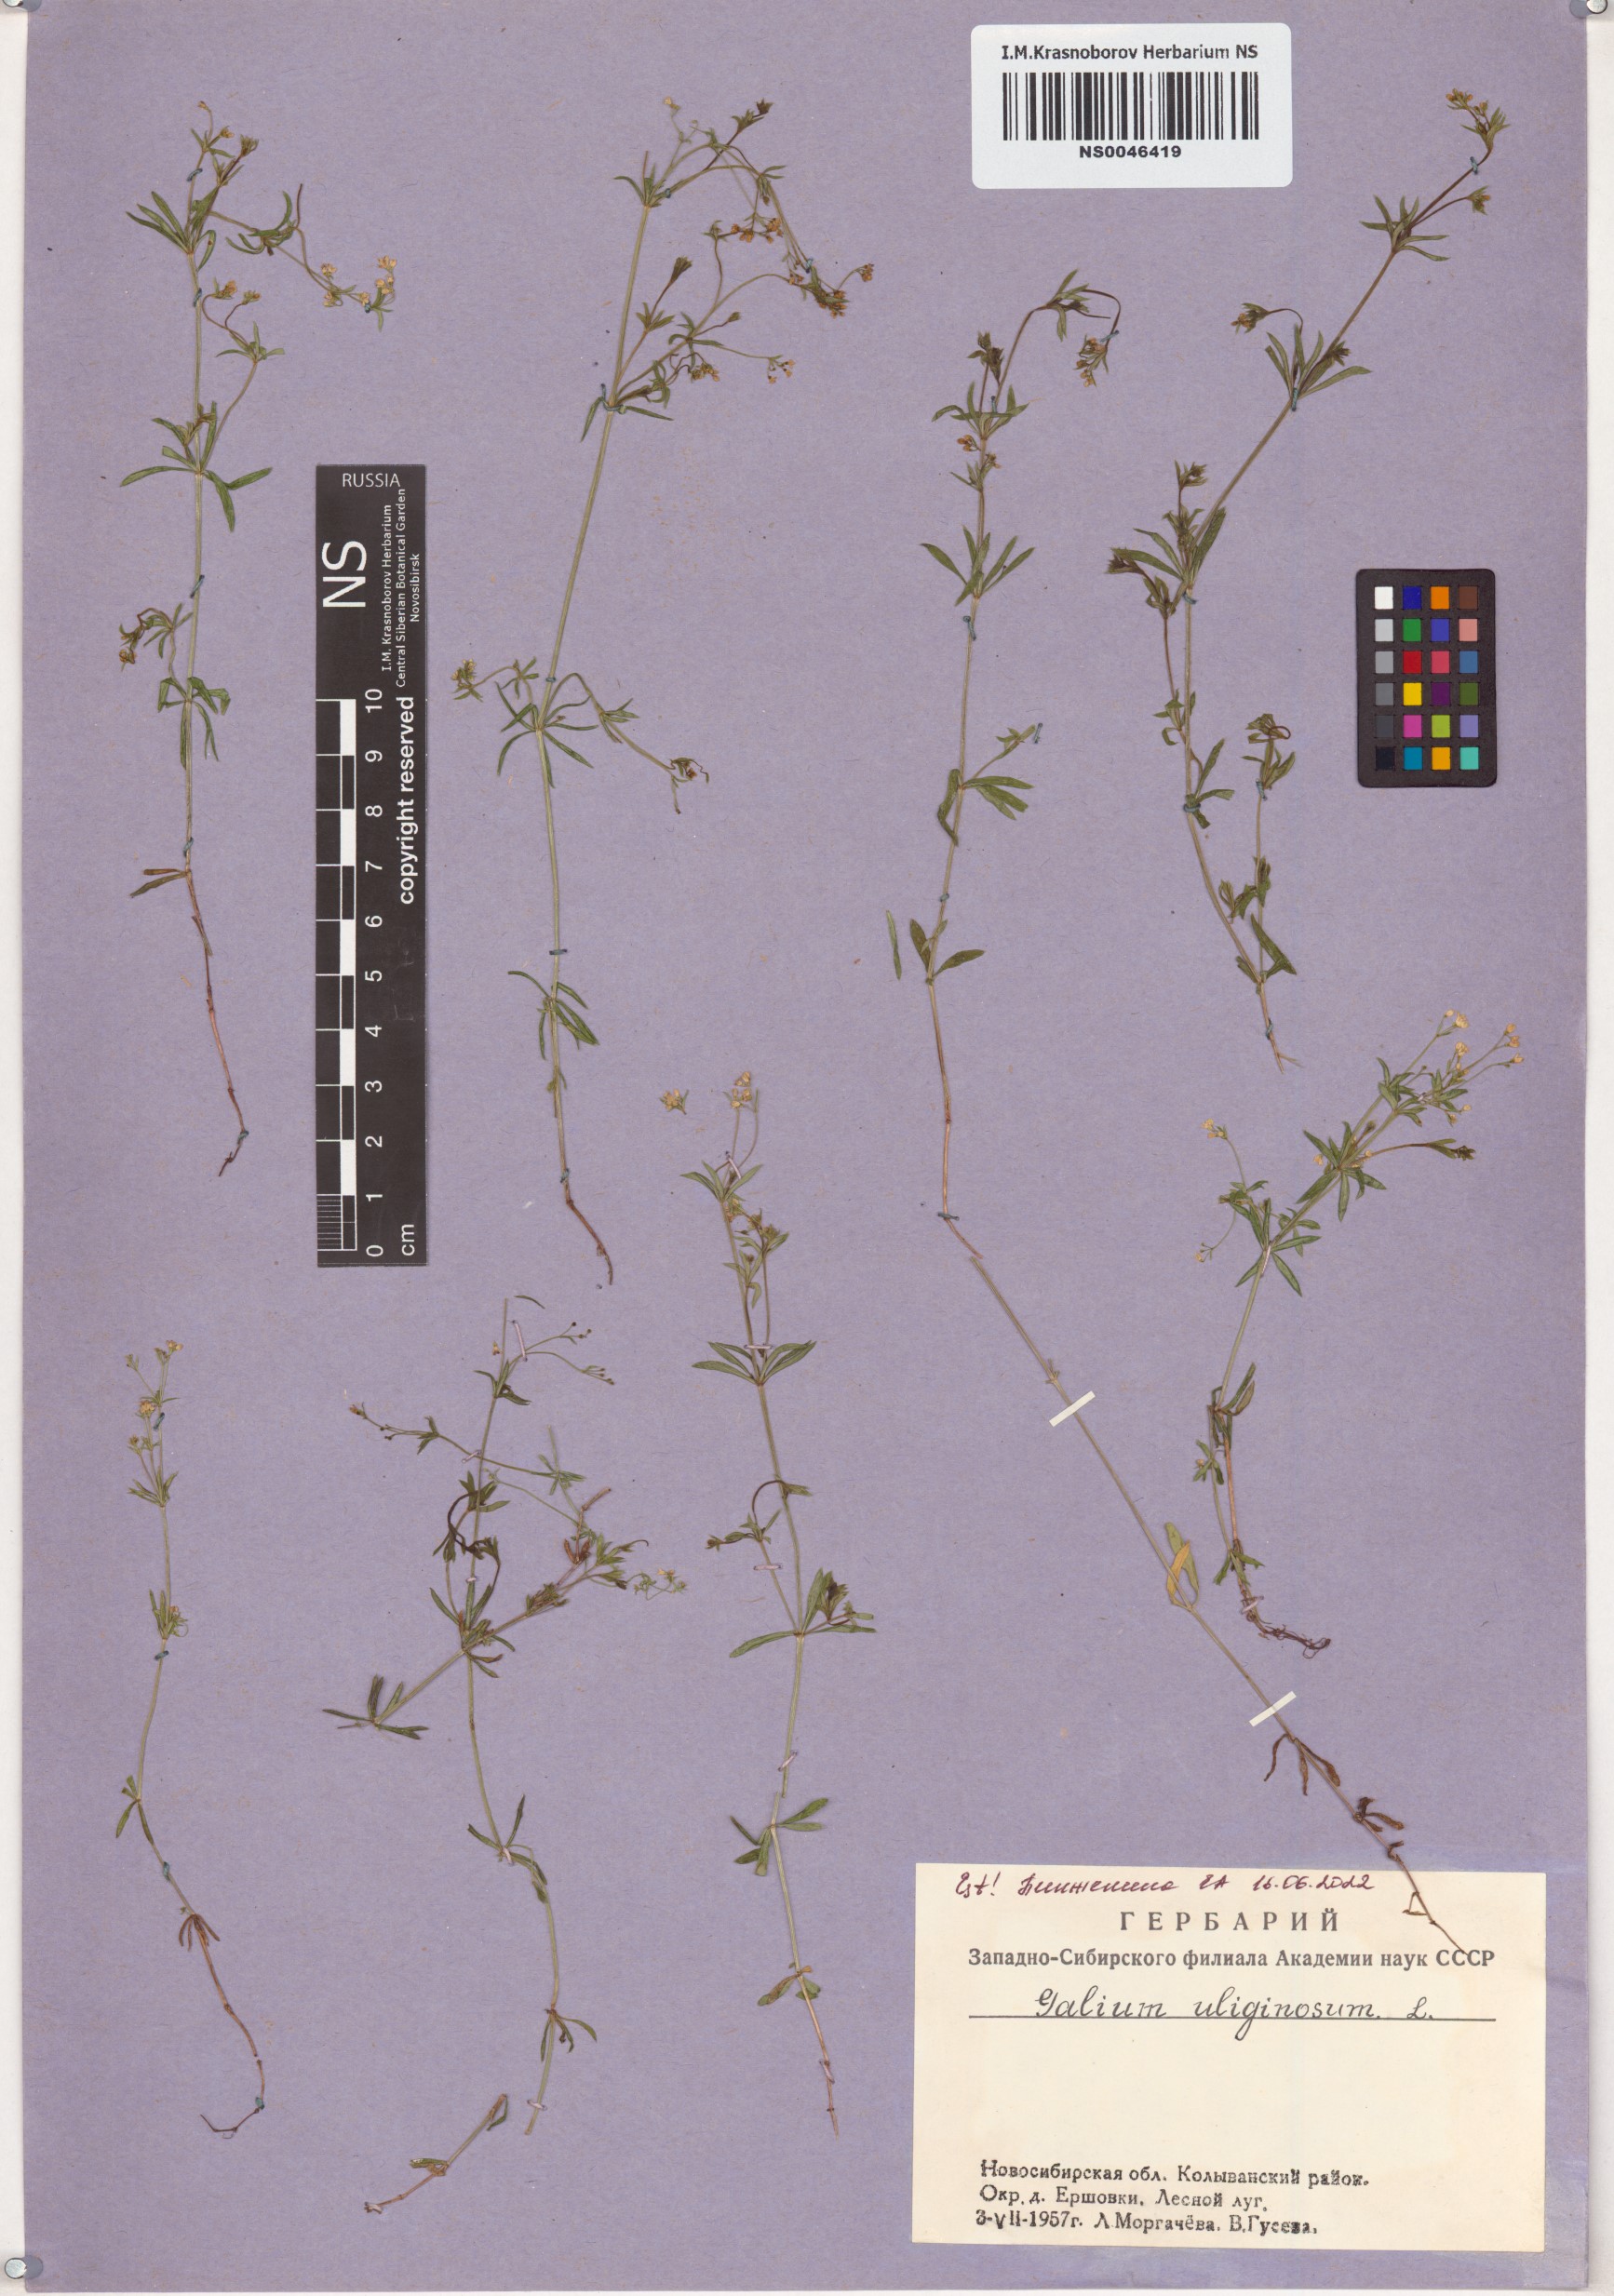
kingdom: Plantae
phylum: Tracheophyta
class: Magnoliopsida
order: Gentianales
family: Rubiaceae
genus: Galium
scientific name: Galium uliginosum
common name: Fen bedstraw
